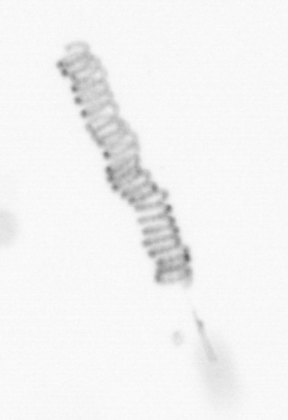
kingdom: Chromista
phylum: Ochrophyta
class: Bacillariophyceae
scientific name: Bacillariophyceae
